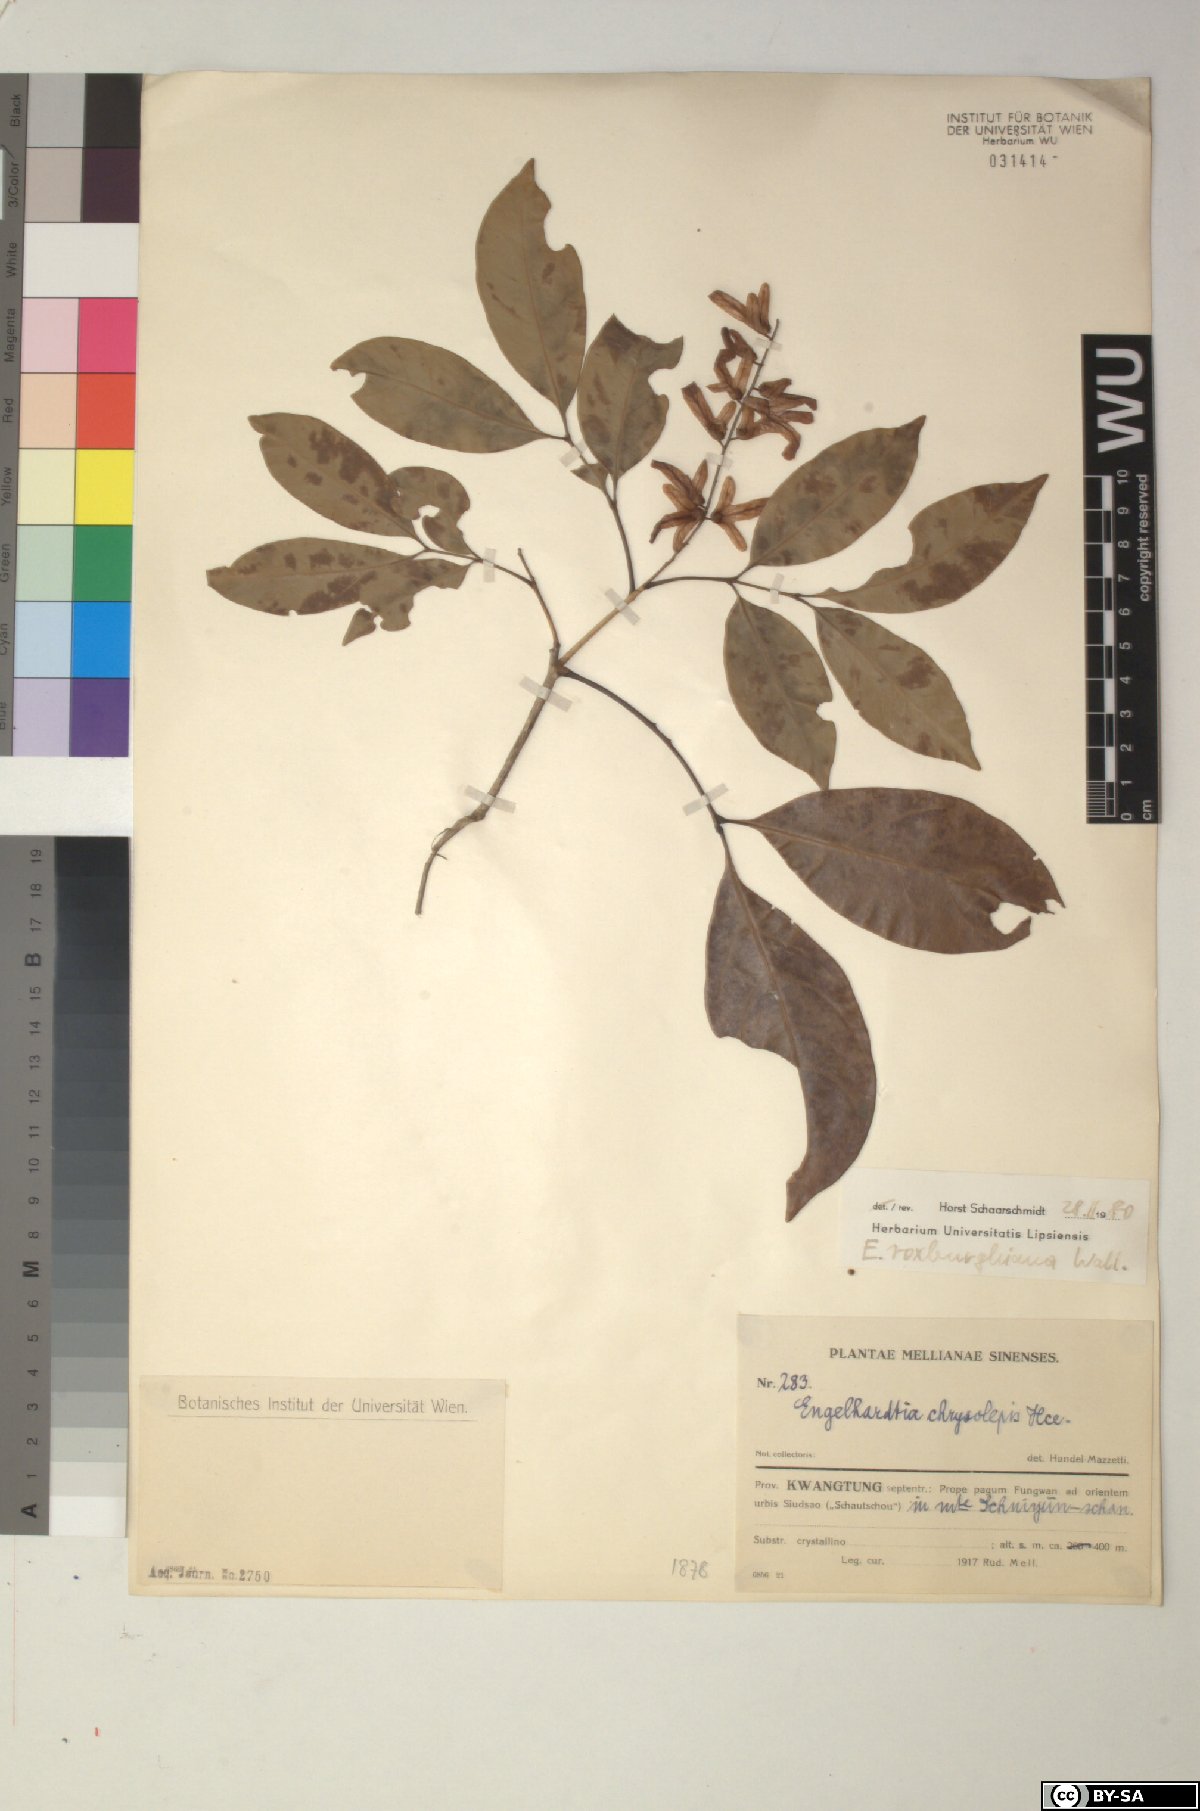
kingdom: Plantae
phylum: Tracheophyta
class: Magnoliopsida
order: Fagales
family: Juglandaceae
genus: Engelhardia
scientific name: Engelhardia roxburghiana
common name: Golden malay beam
